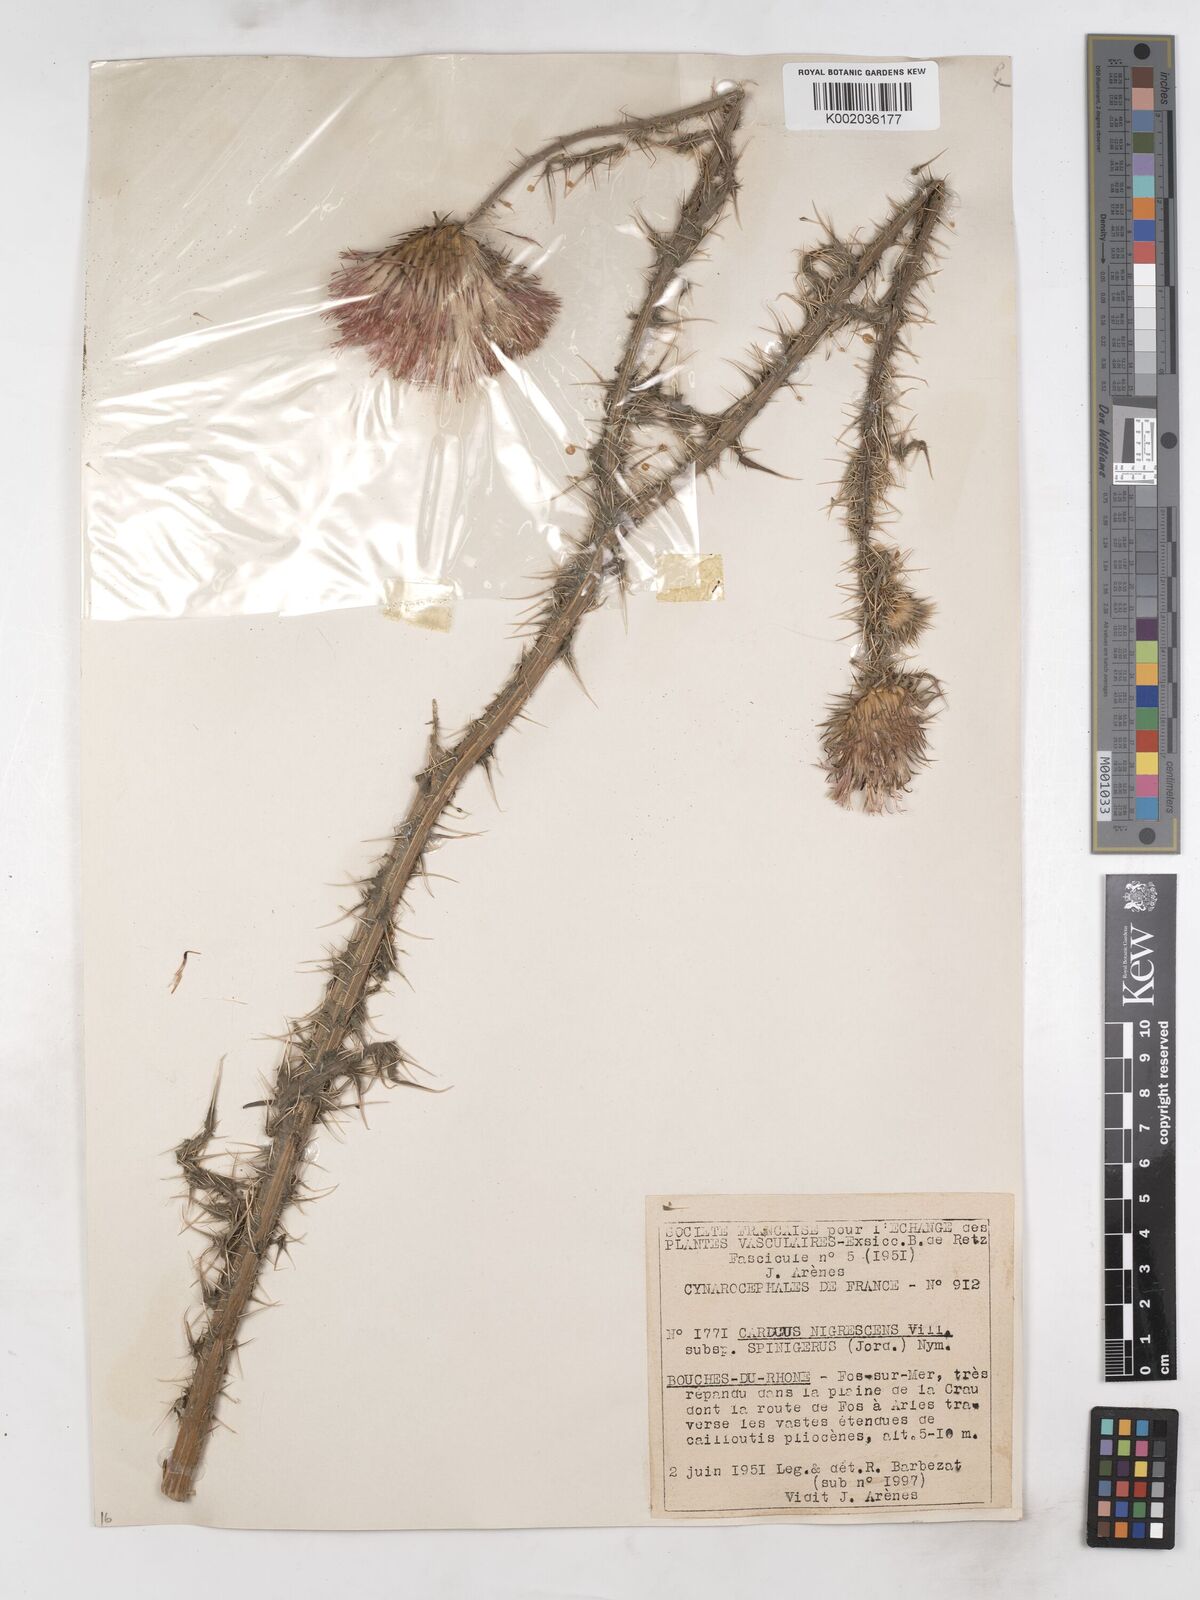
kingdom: Plantae
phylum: Tracheophyta
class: Magnoliopsida
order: Asterales
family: Asteraceae
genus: Carduus
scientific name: Carduus nigrescens
